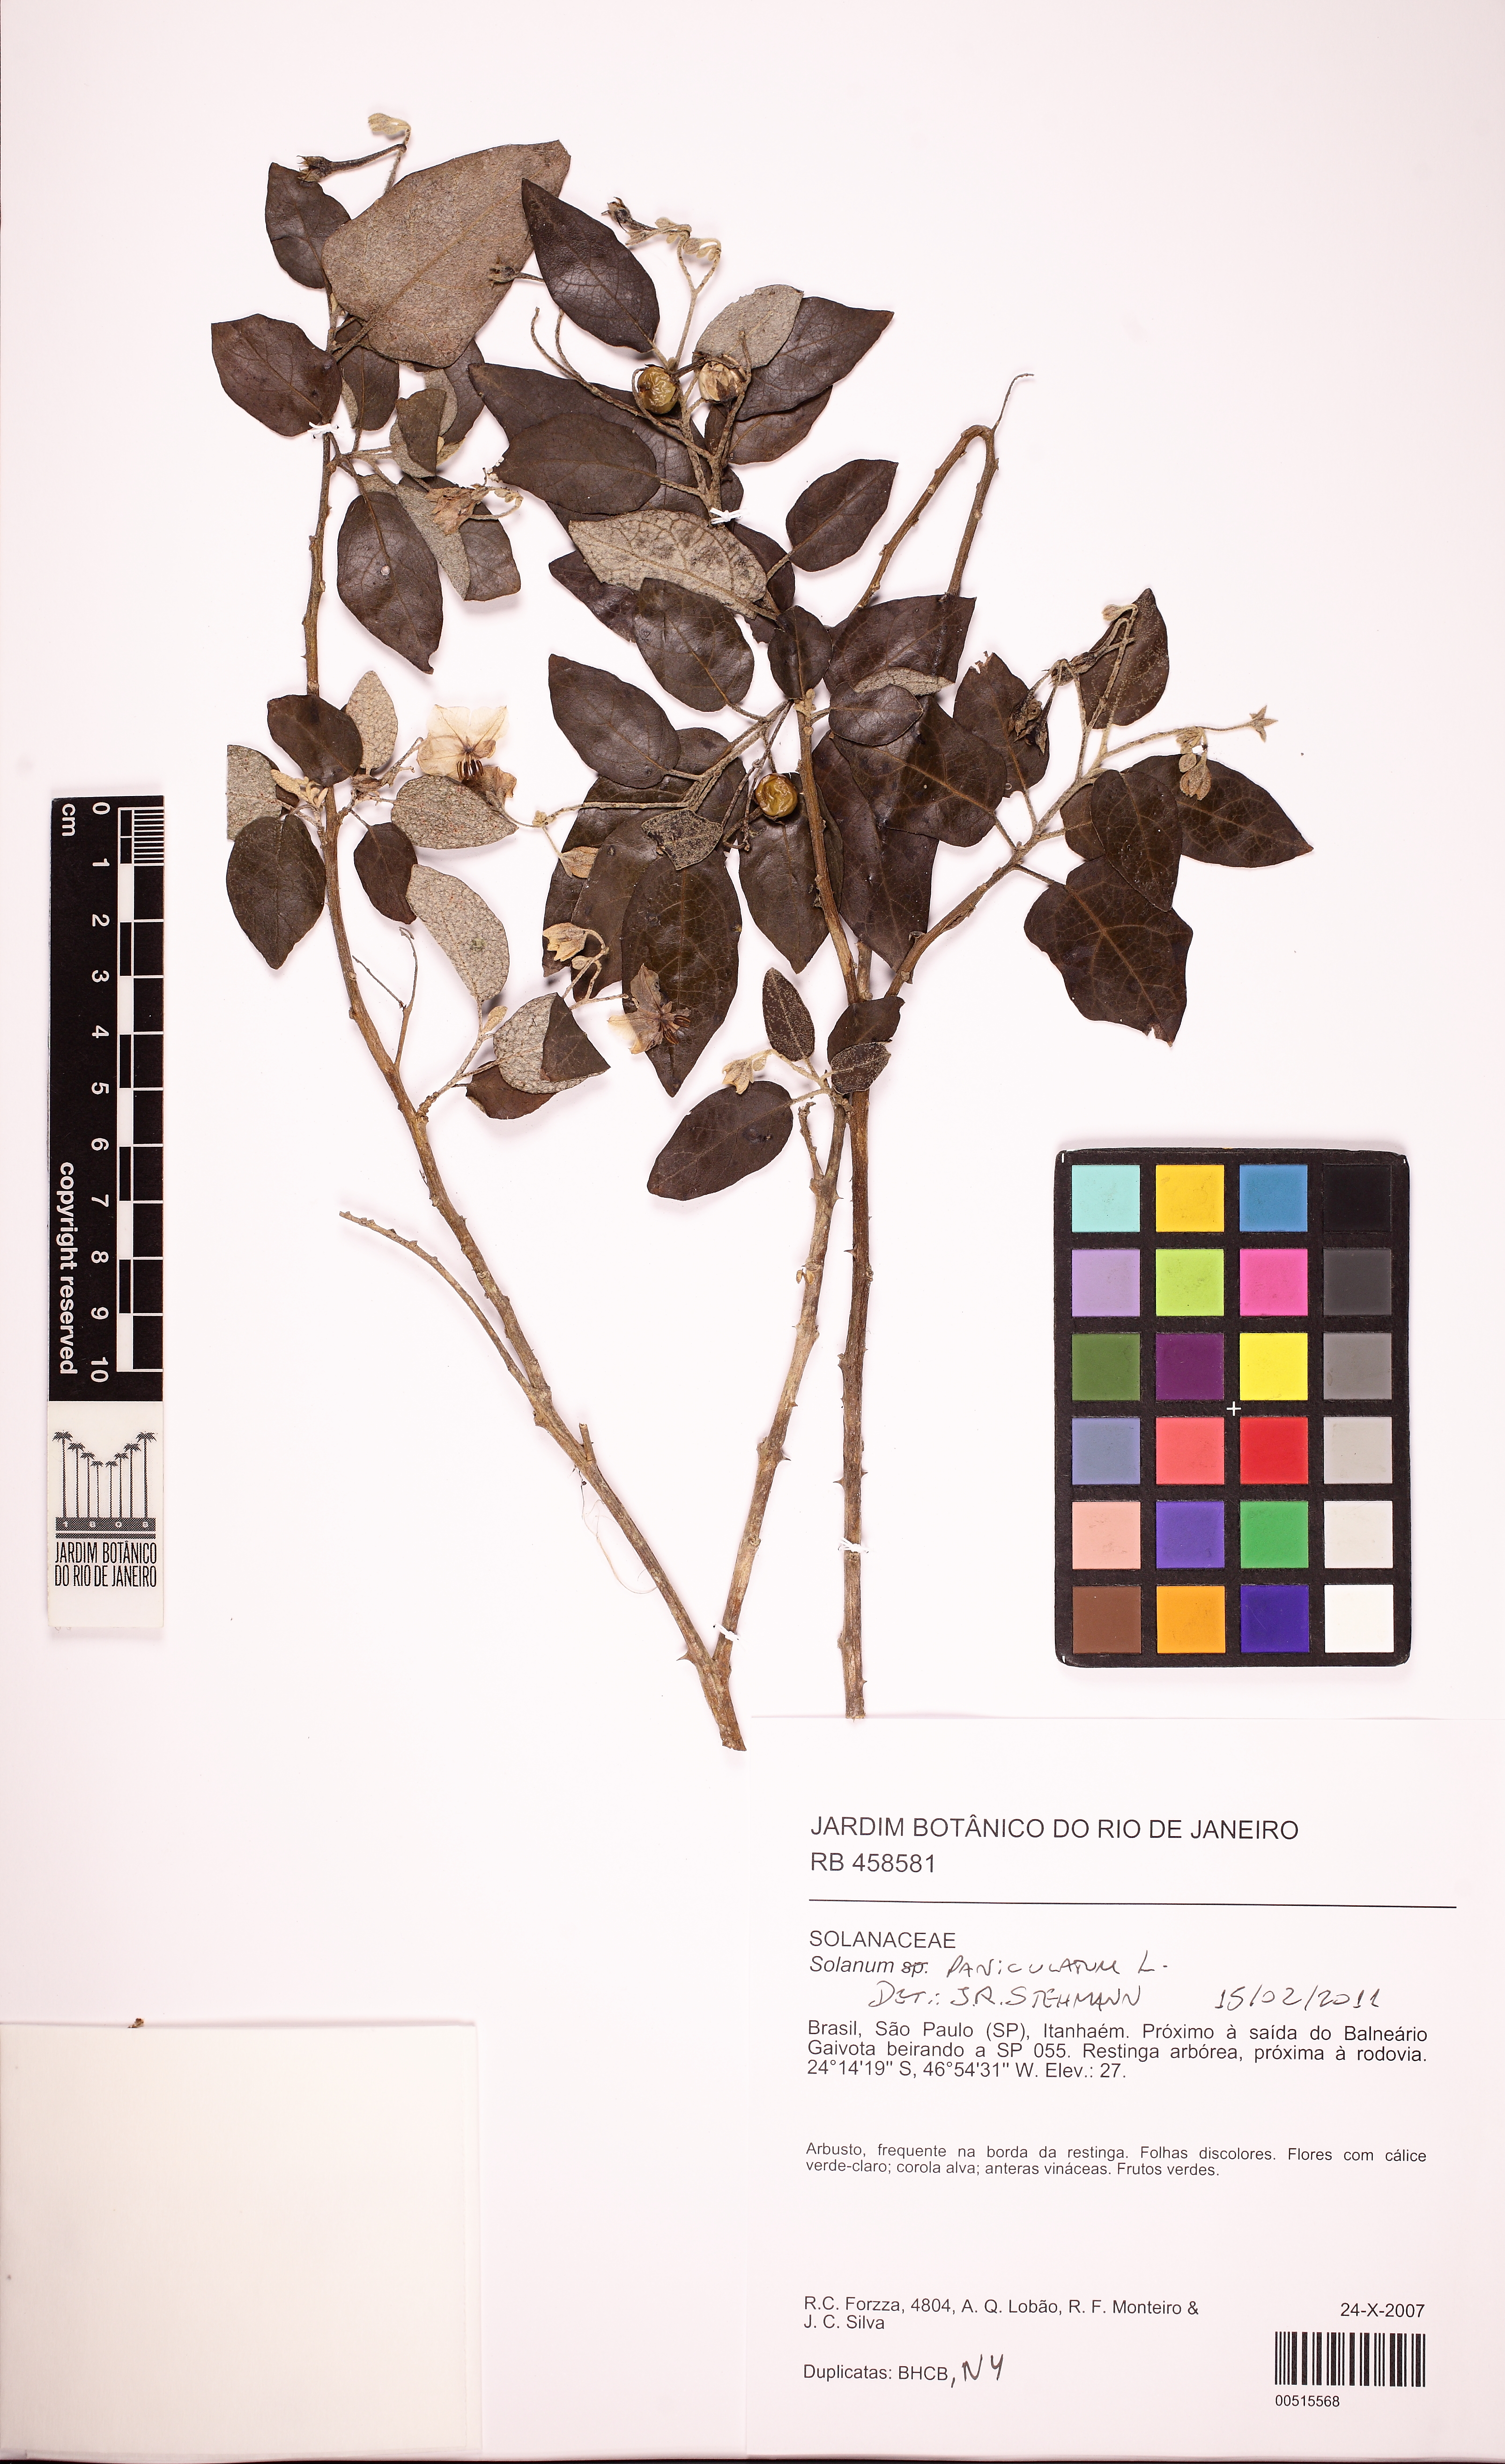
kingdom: Plantae
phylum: Tracheophyta
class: Magnoliopsida
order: Solanales
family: Solanaceae
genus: Solanum
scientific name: Solanum paniculatum
